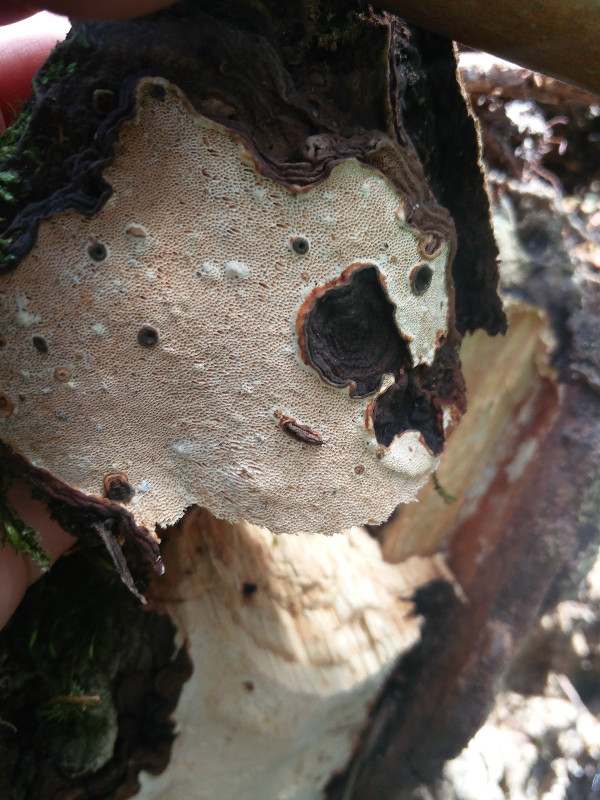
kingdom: Fungi
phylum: Basidiomycota
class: Agaricomycetes
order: Russulales
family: Bondarzewiaceae
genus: Heterobasidion
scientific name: Heterobasidion annosum
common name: almindelig rodfordærver
